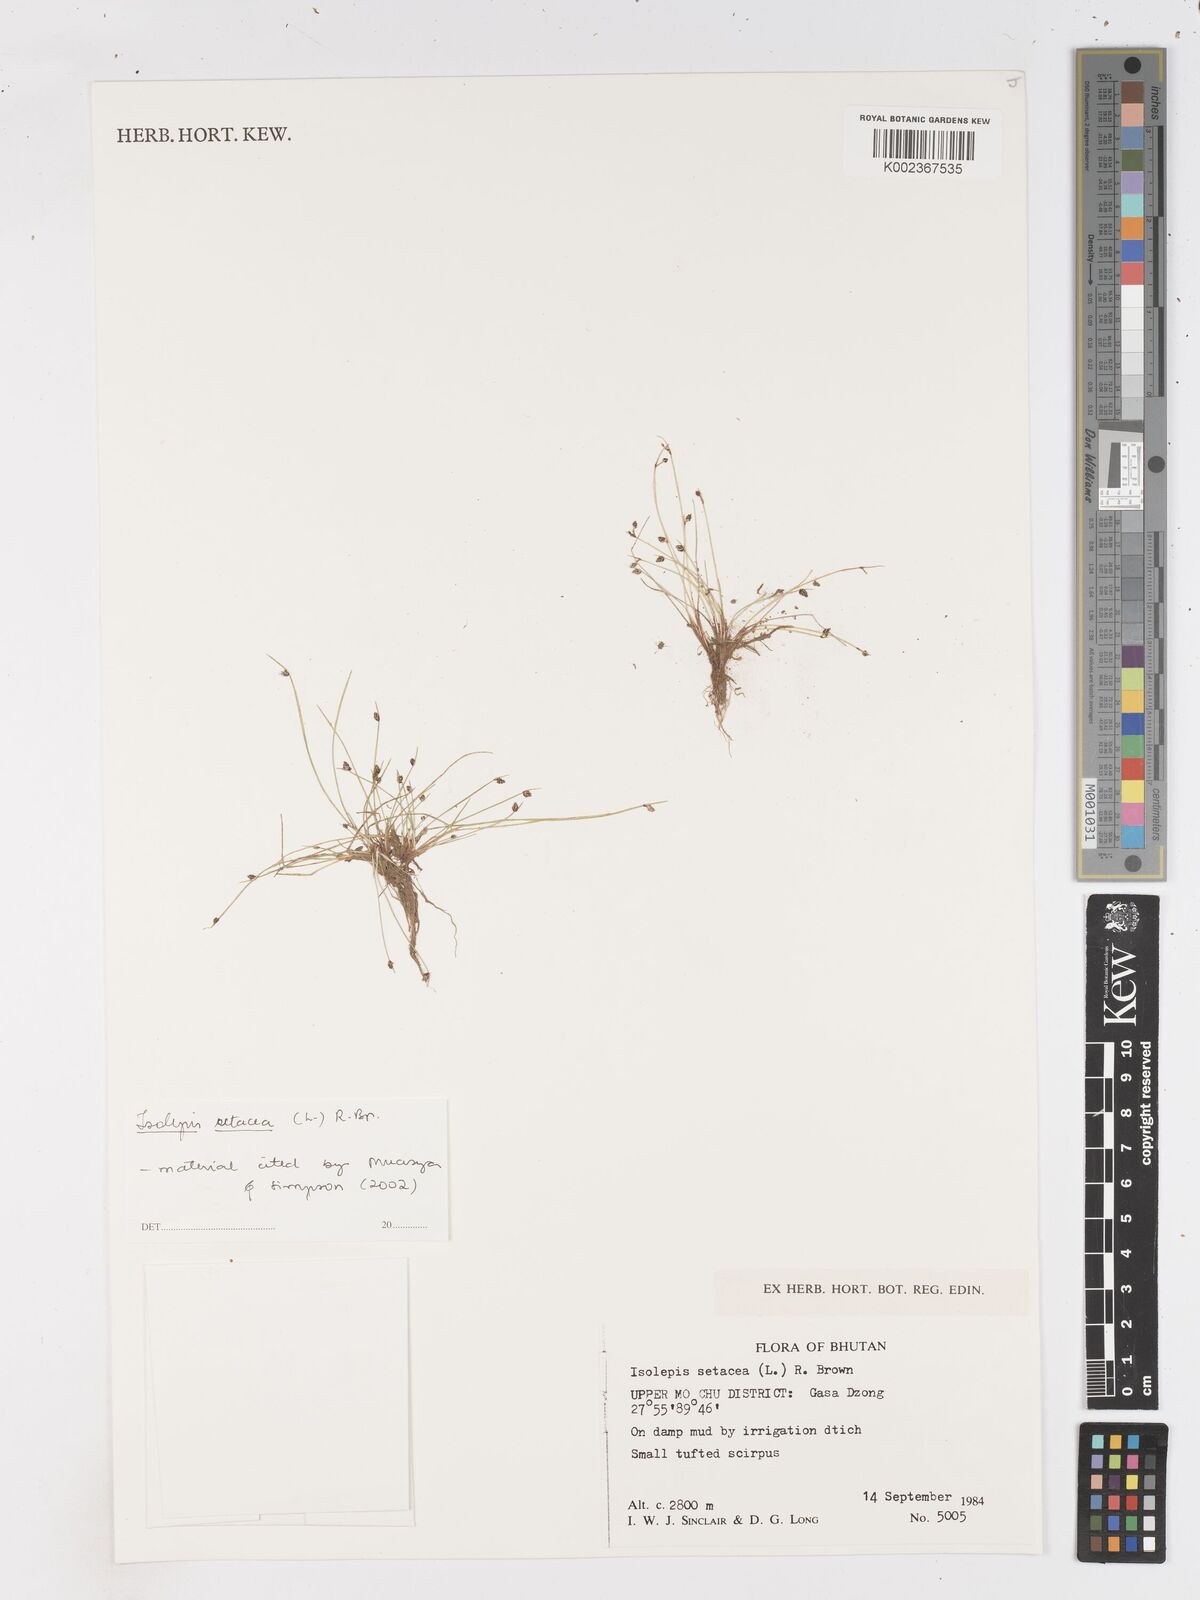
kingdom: Plantae
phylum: Tracheophyta
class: Liliopsida
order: Poales
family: Cyperaceae
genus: Isolepis
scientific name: Isolepis setacea
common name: Bristle club-rush
